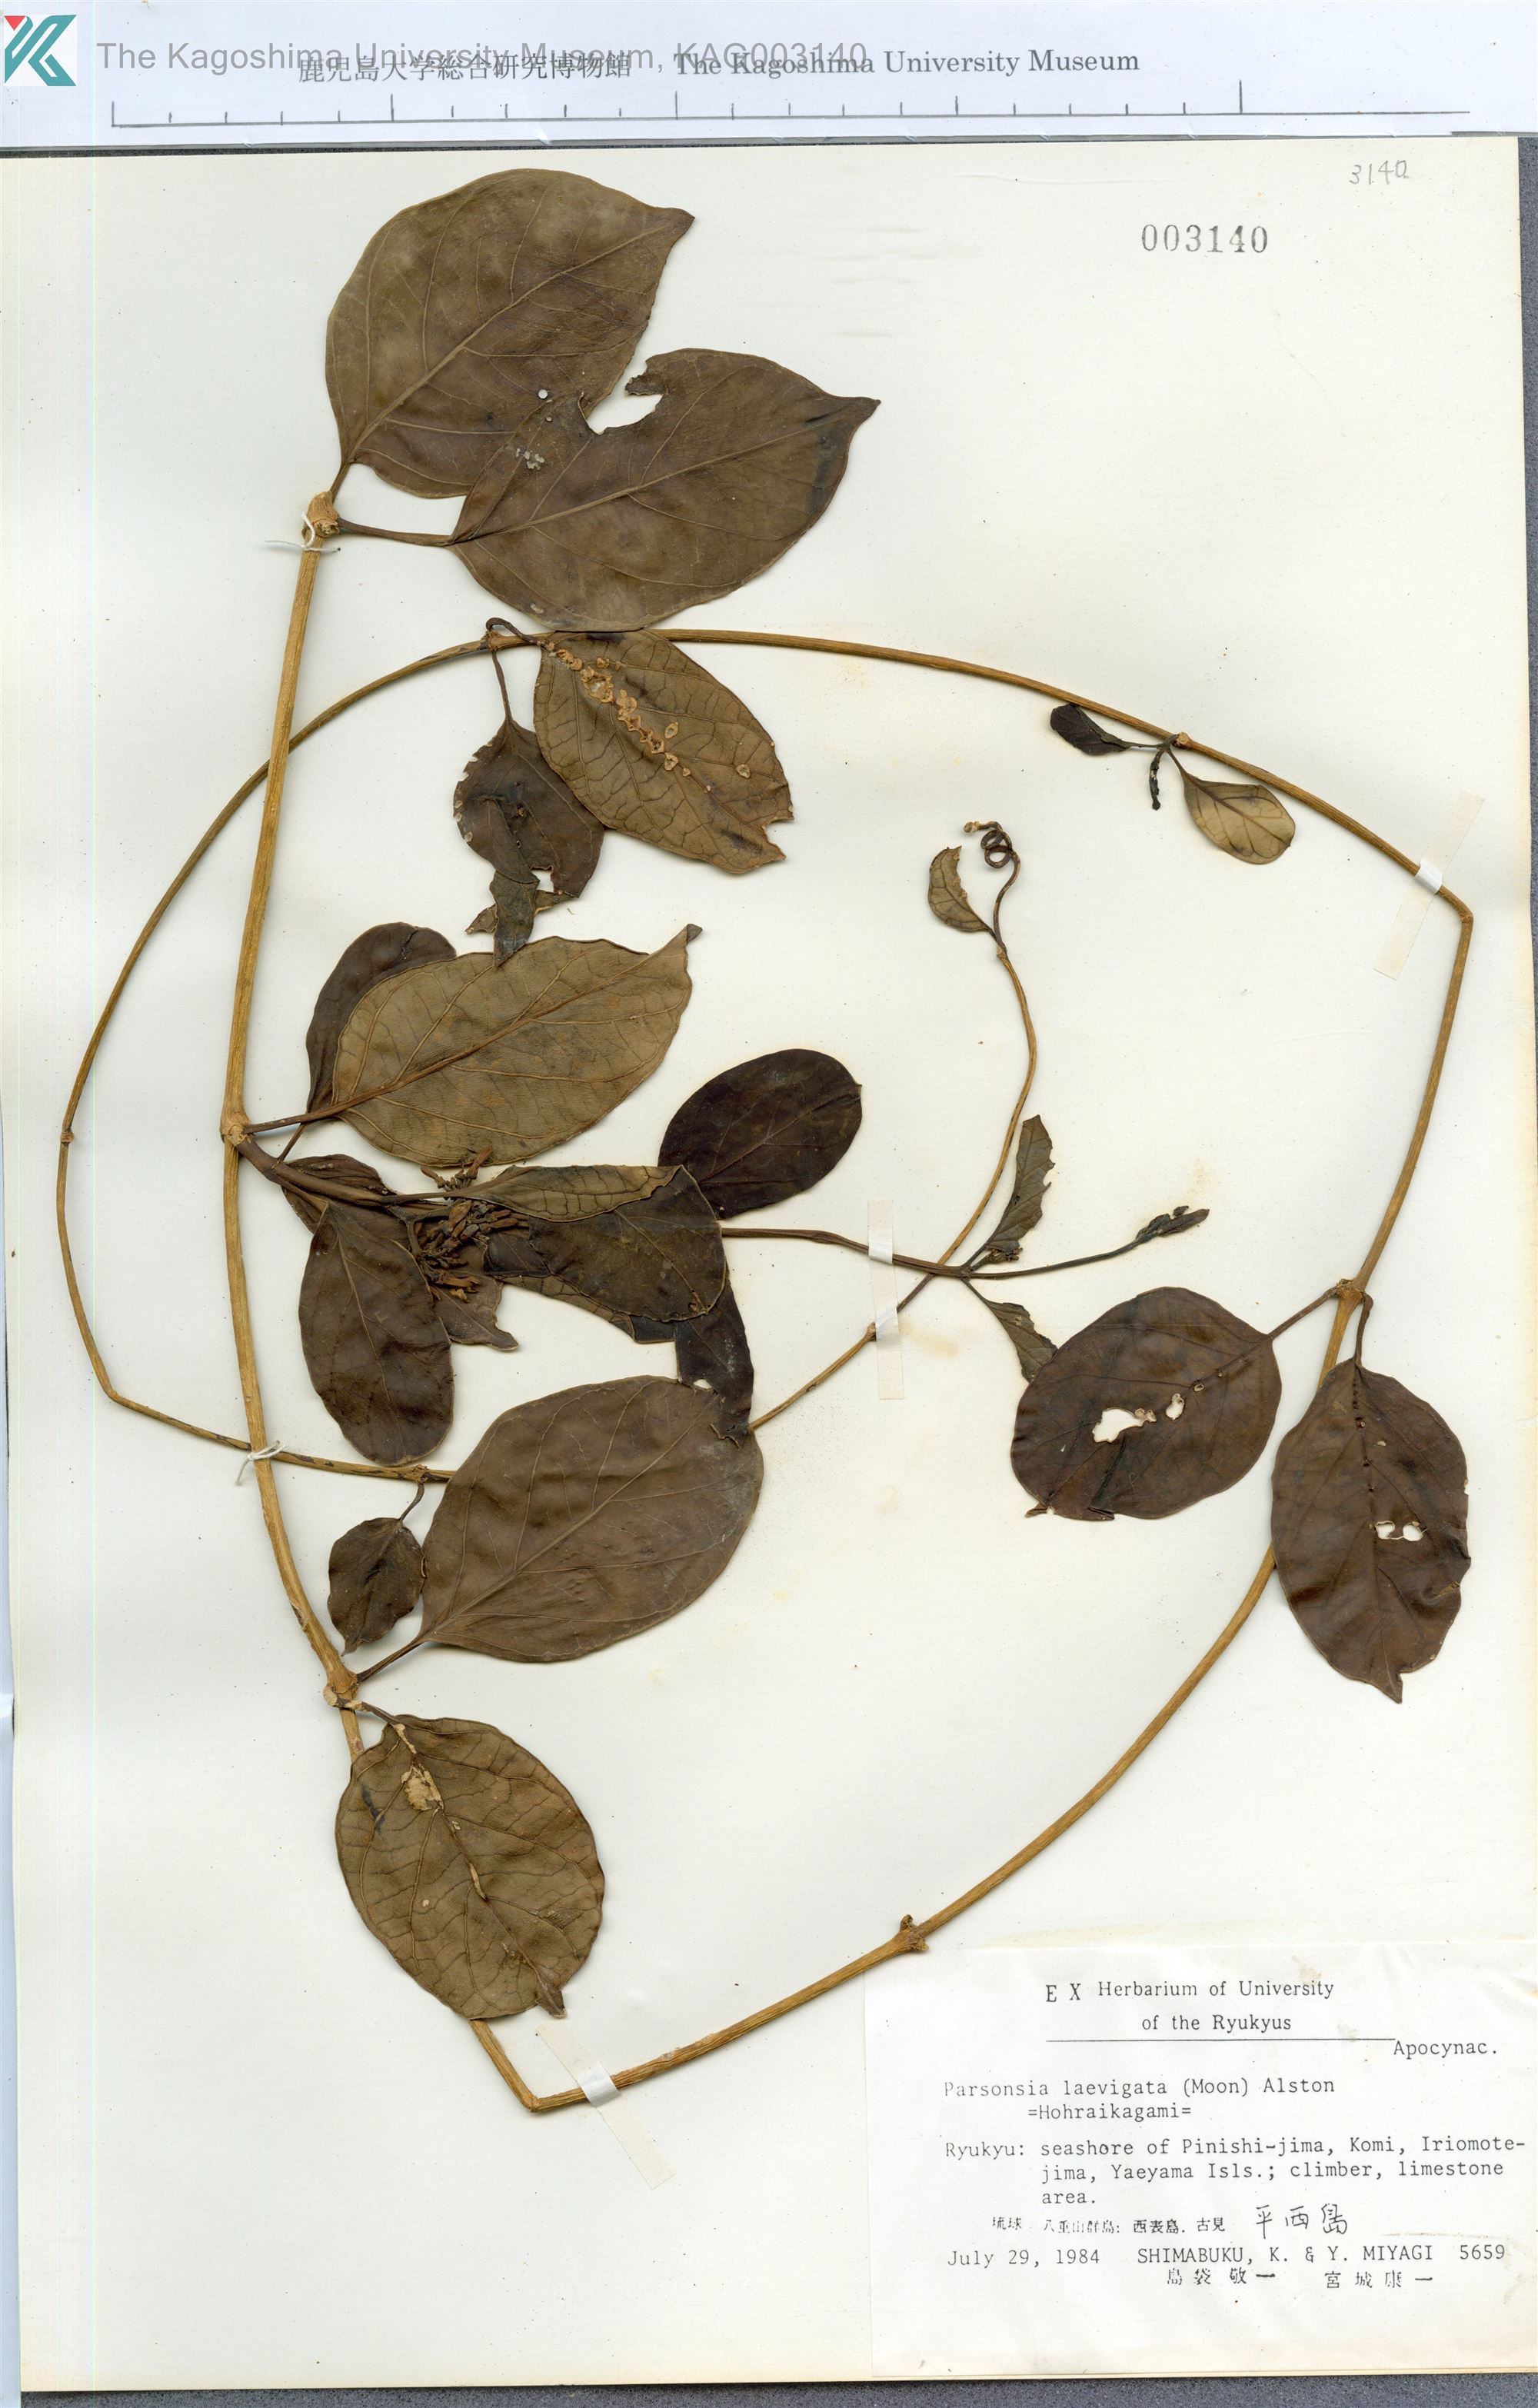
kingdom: Plantae
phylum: Tracheophyta
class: Magnoliopsida
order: Gentianales
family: Apocynaceae
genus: Parsonsia
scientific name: Parsonsia alboflavescens
